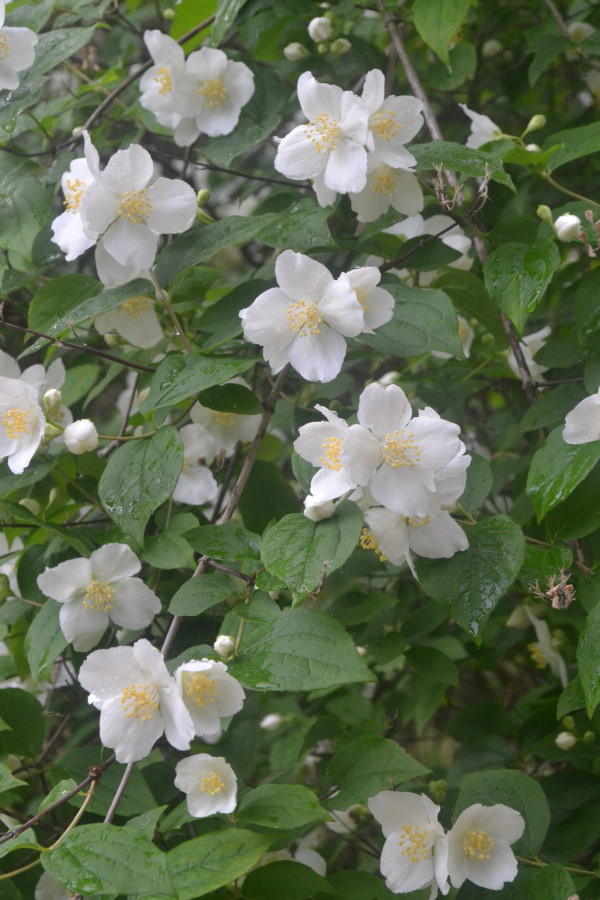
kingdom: Plantae
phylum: Tracheophyta
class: Magnoliopsida
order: Cornales
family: Hydrangeaceae
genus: Philadelphus
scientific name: Philadelphus
